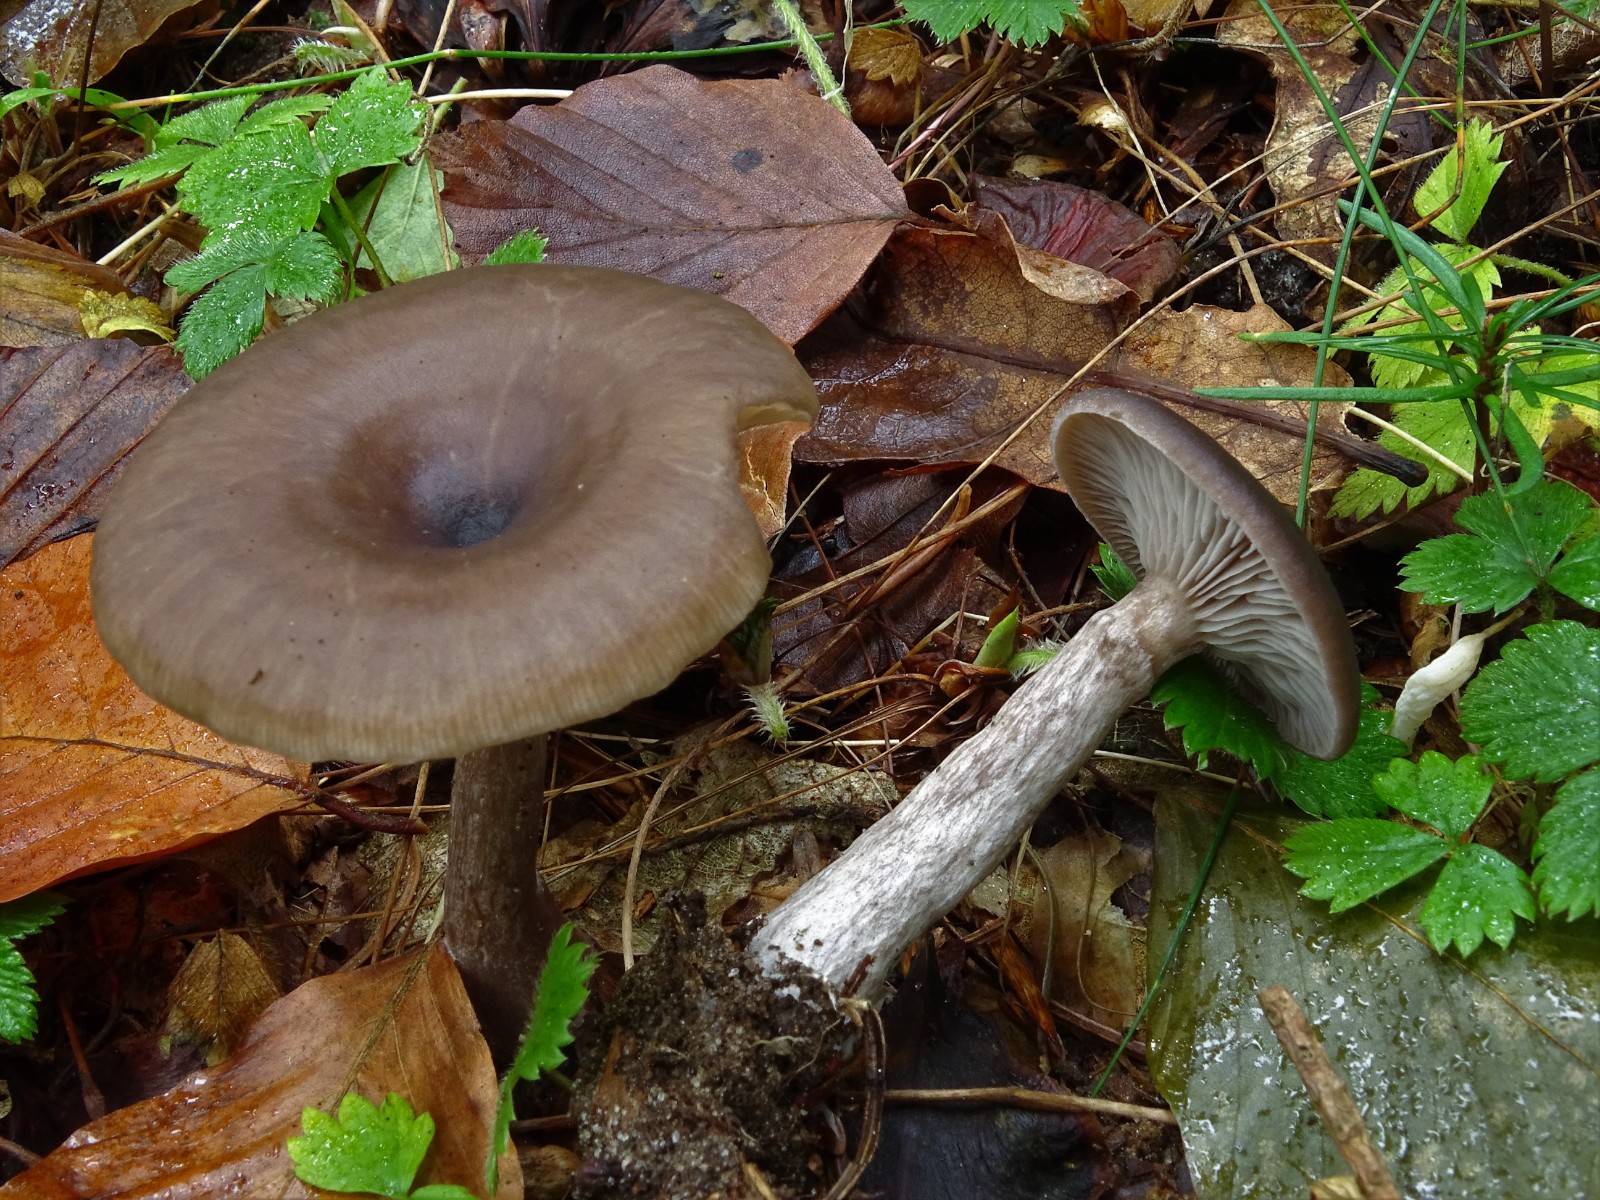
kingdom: Fungi
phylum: Basidiomycota
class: Agaricomycetes
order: Agaricales
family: Pseudoclitocybaceae
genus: Pseudoclitocybe
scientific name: Pseudoclitocybe cyathiformis
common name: almindelig bægertragthat
